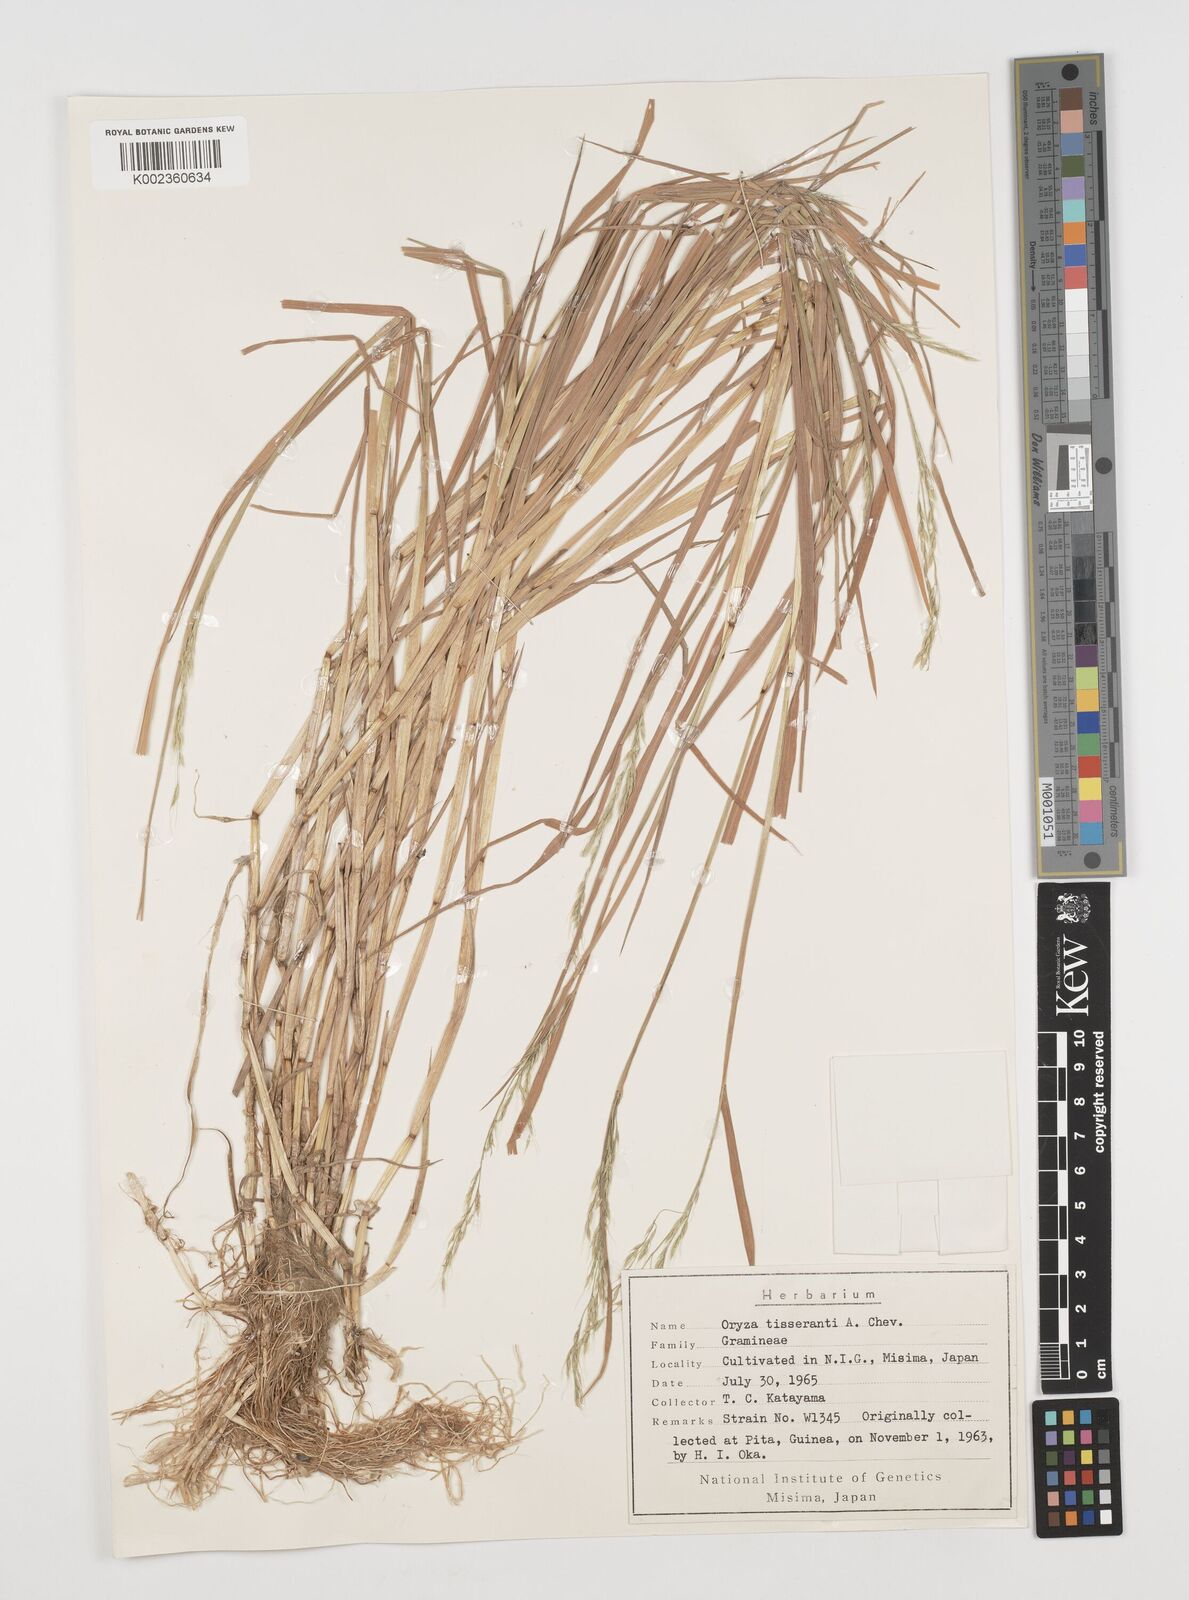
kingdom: Plantae
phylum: Tracheophyta
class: Liliopsida
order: Poales
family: Poaceae
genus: Leersia
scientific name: Leersia tisserantii
